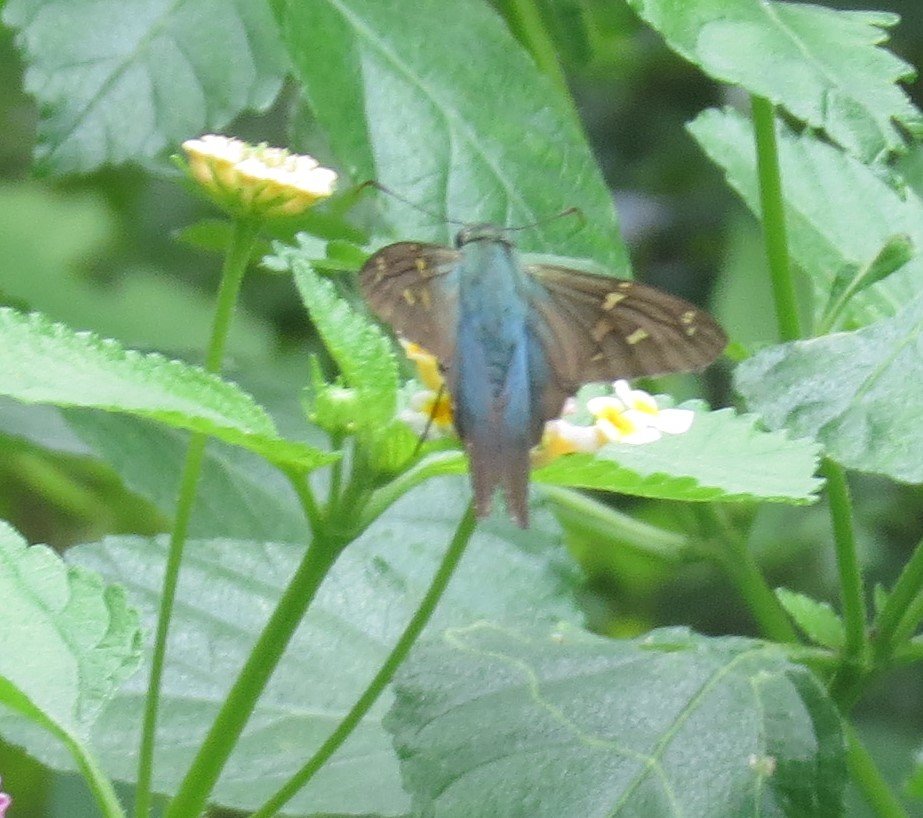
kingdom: Animalia
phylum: Arthropoda
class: Insecta
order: Lepidoptera
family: Hesperiidae
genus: Urbanus
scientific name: Urbanus proteus
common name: Long-tailed Skipper
